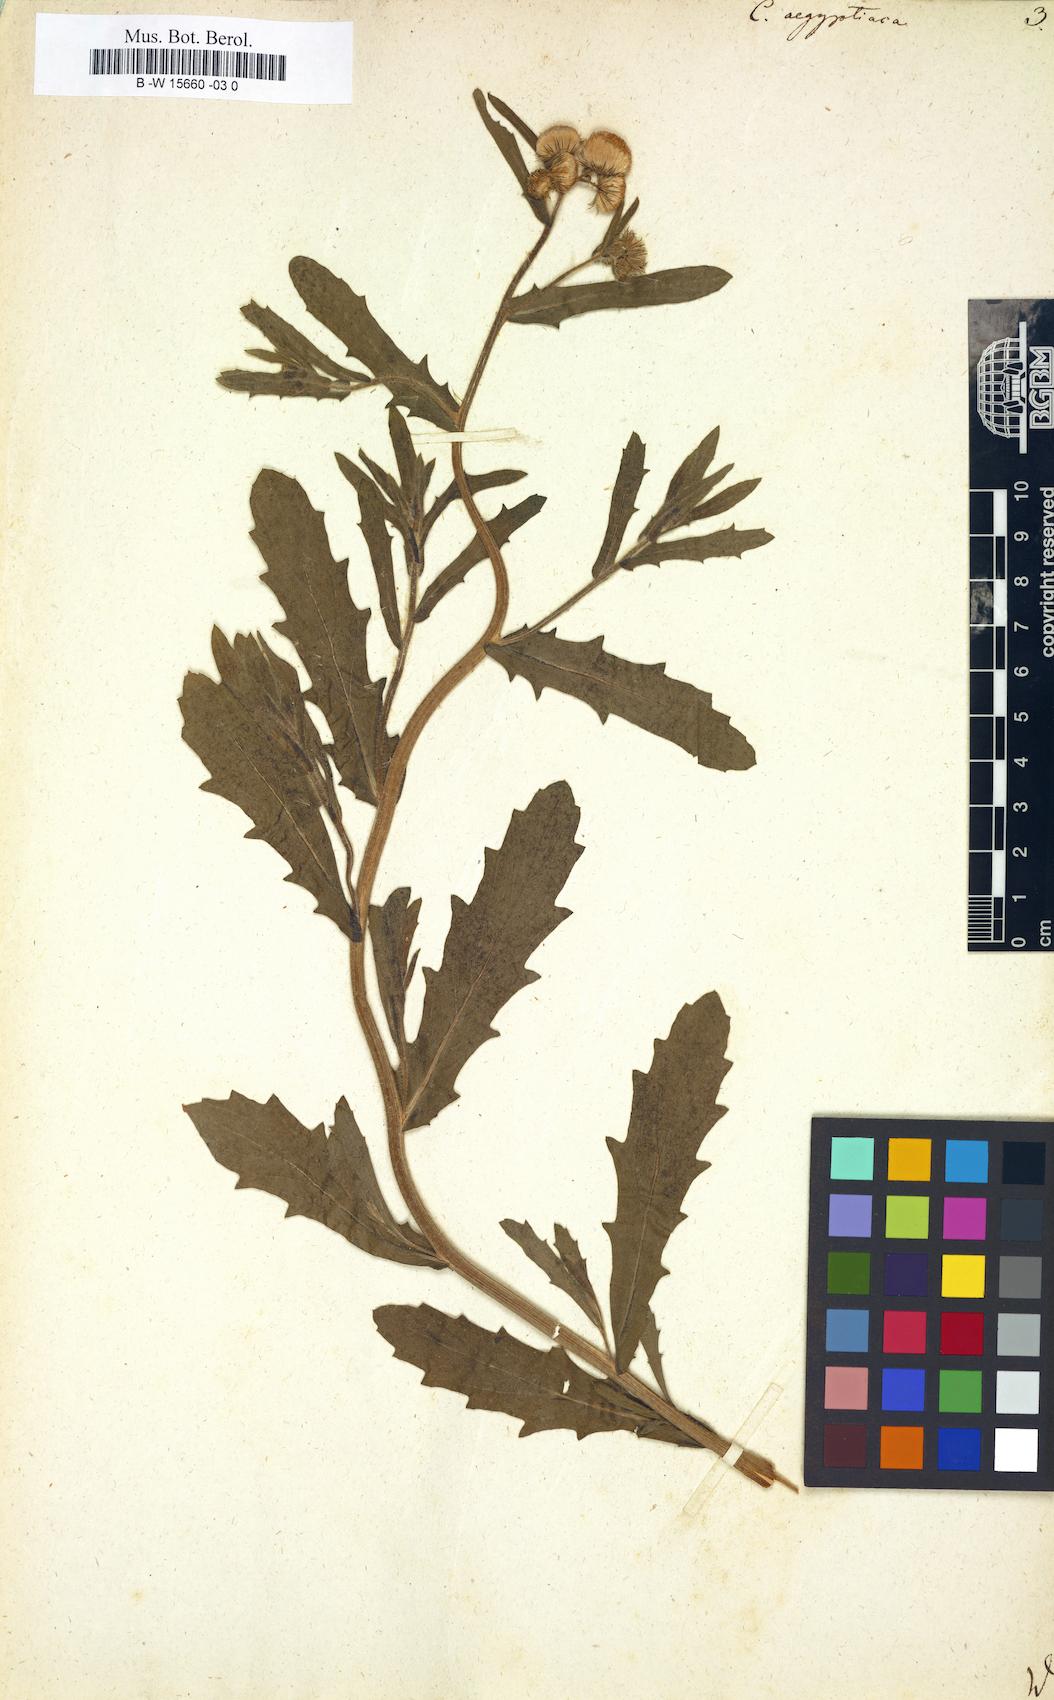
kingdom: Plantae
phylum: Tracheophyta
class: Magnoliopsida
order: Asterales
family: Asteraceae
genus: Nidorella
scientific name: Nidorella aegyptiaca
